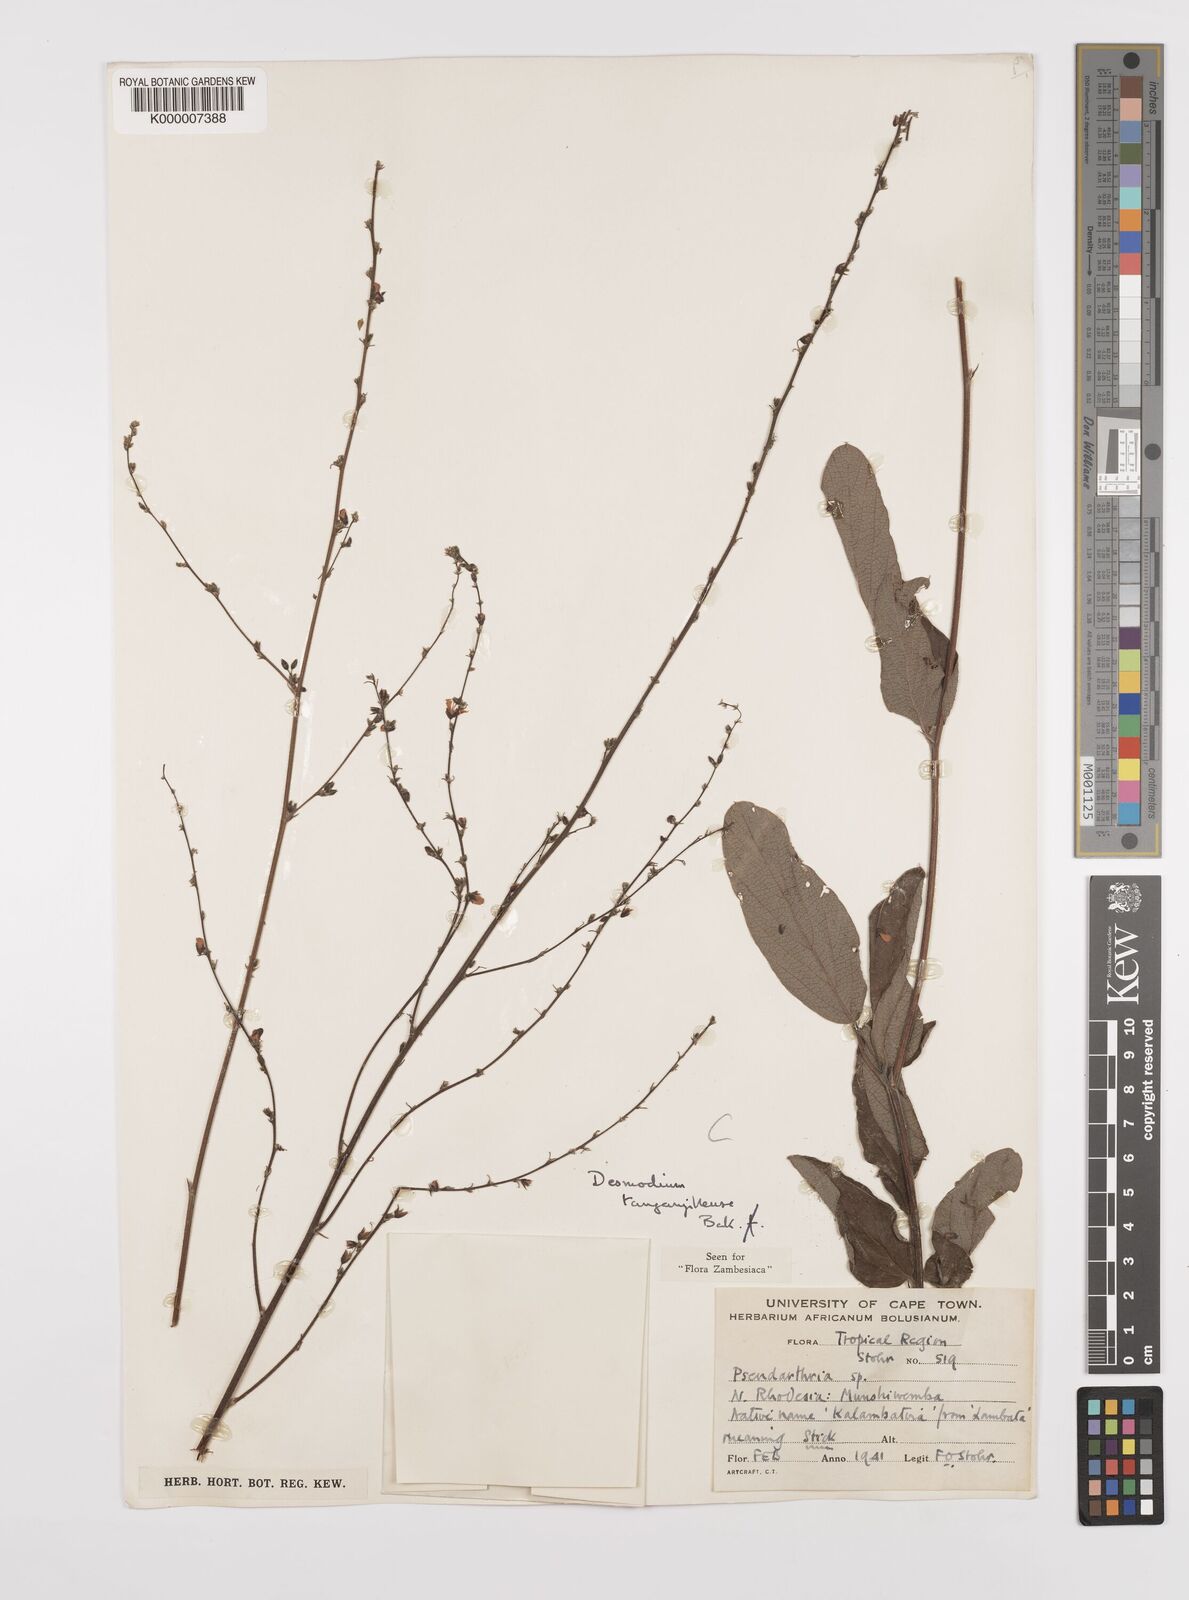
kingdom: Plantae
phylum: Tracheophyta
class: Magnoliopsida
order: Fabales
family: Fabaceae
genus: Pleurolobus
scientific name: Pleurolobus tanganyikensis
